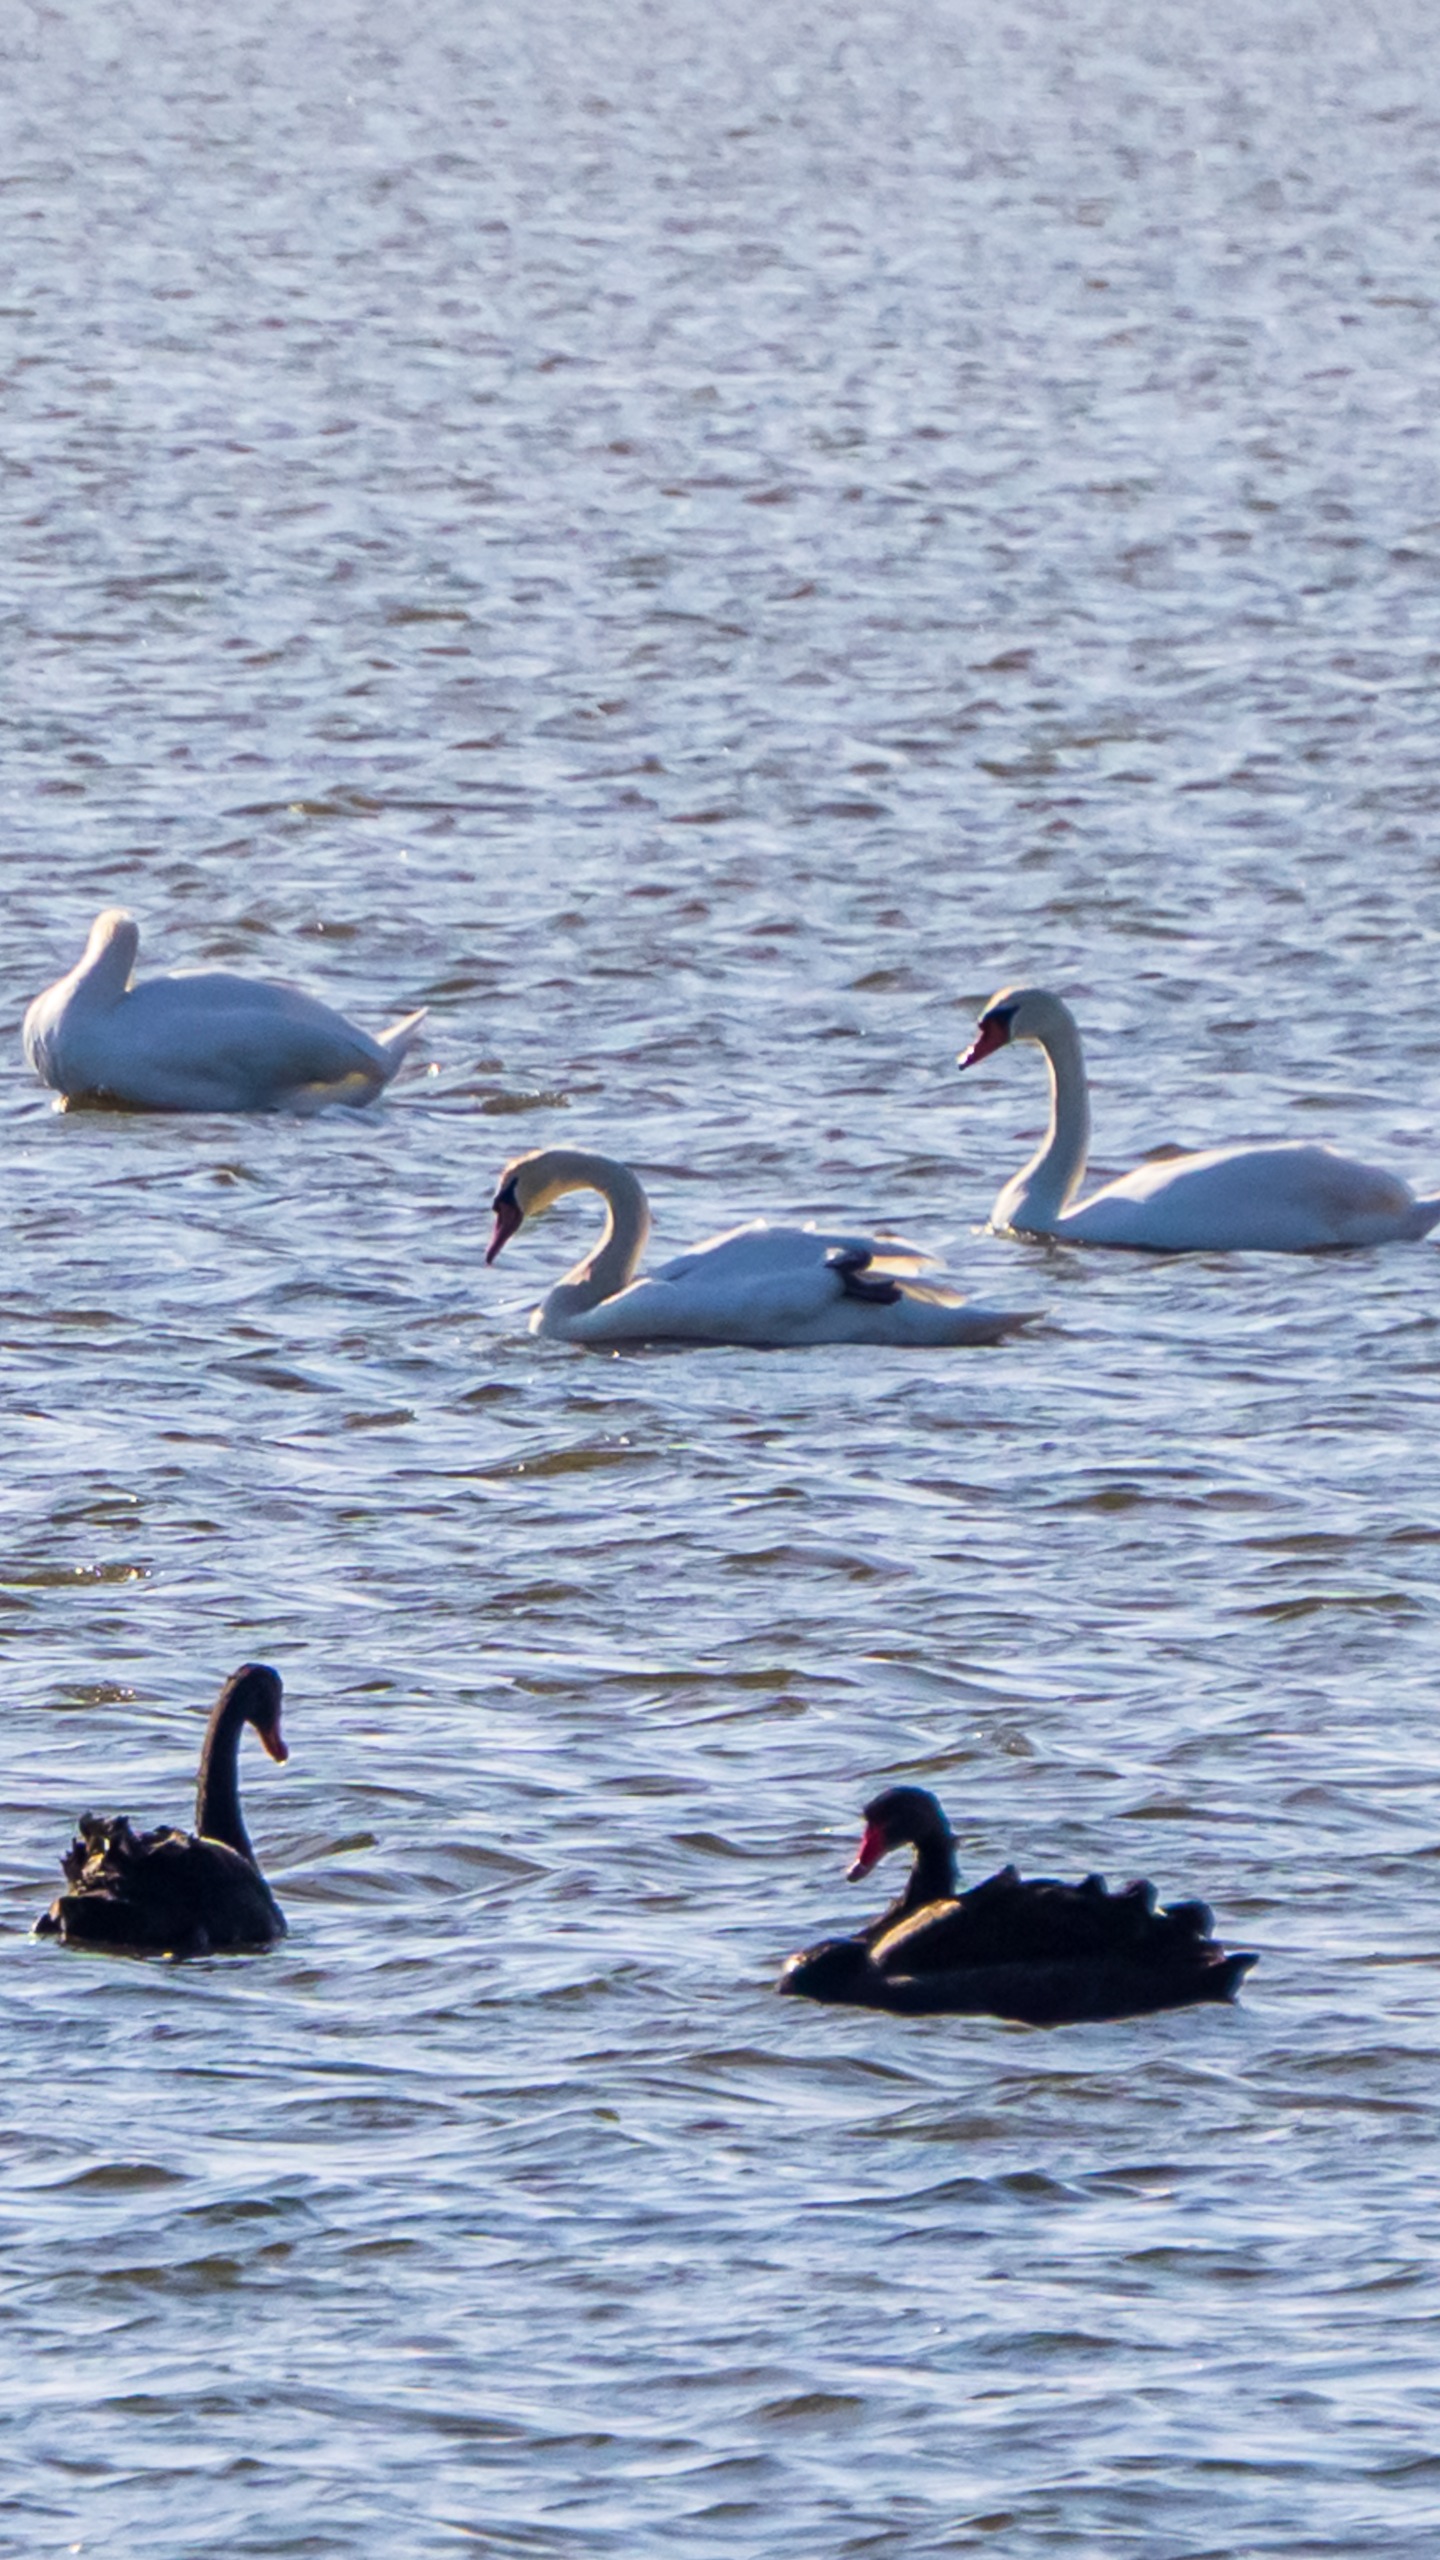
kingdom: Animalia
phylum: Chordata
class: Aves
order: Anseriformes
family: Anatidae
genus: Cygnus
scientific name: Cygnus atratus
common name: Sortsvane
